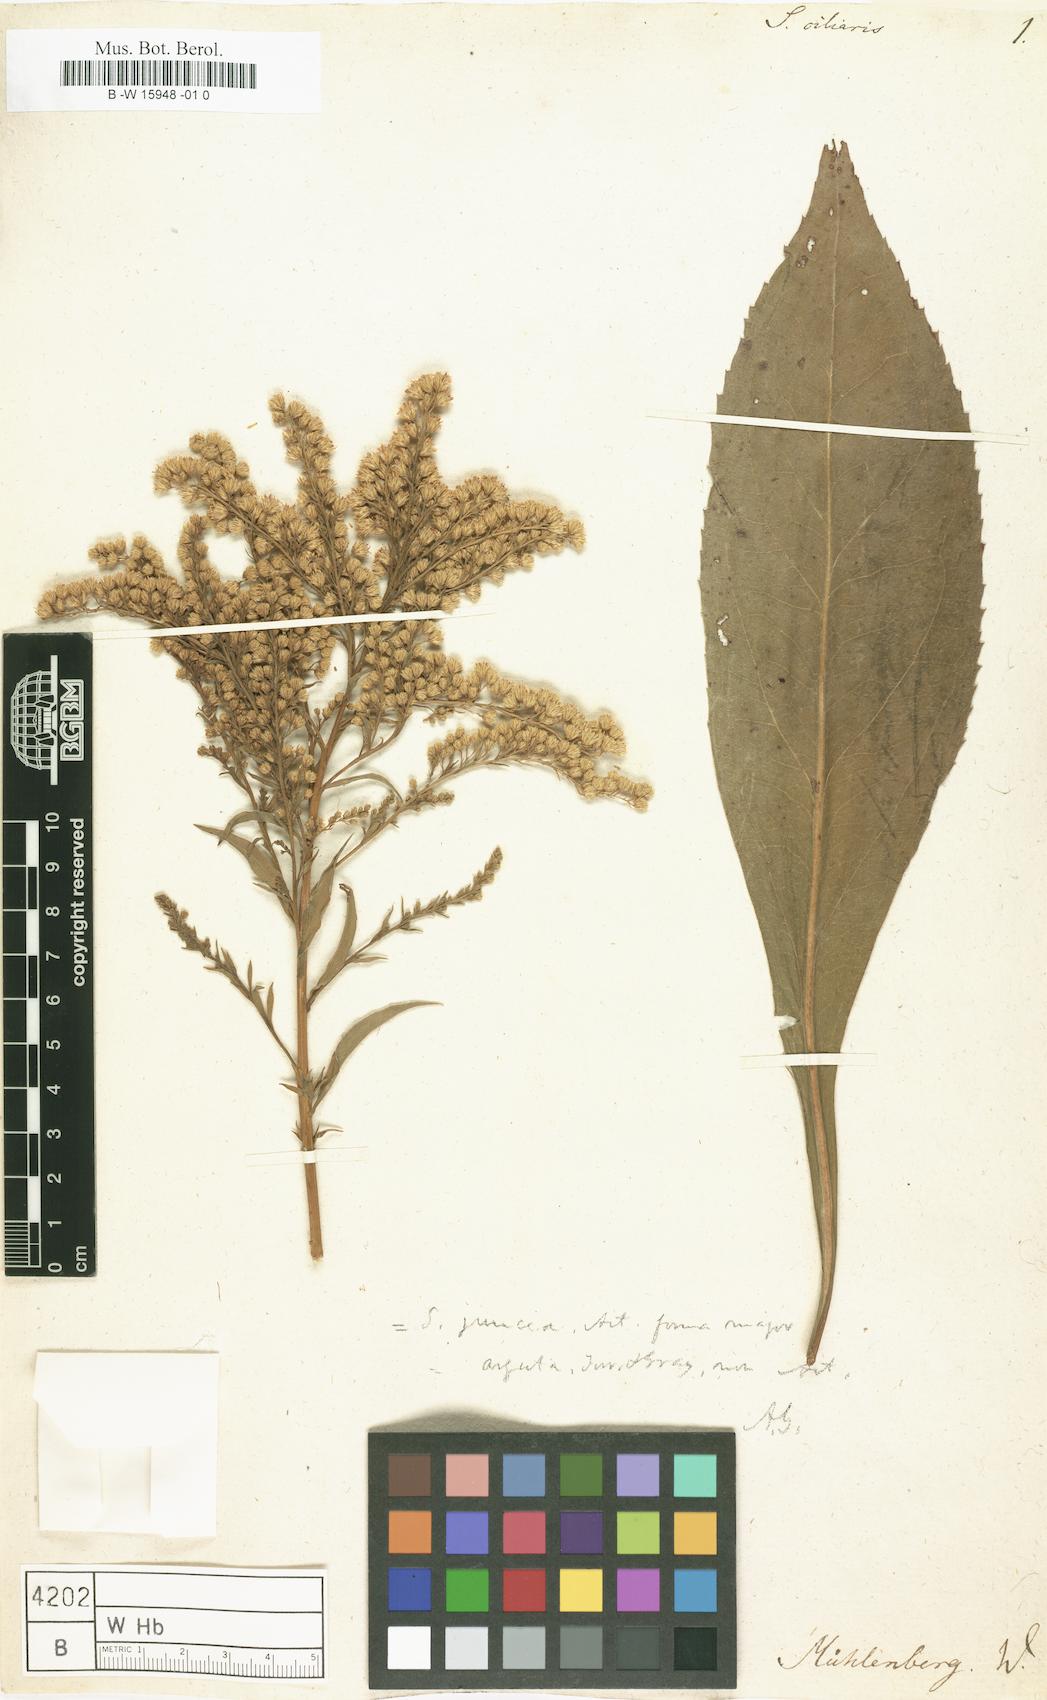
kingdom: Plantae
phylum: Tracheophyta
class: Magnoliopsida
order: Asterales
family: Asteraceae
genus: Solidago
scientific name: Solidago ciliaris
